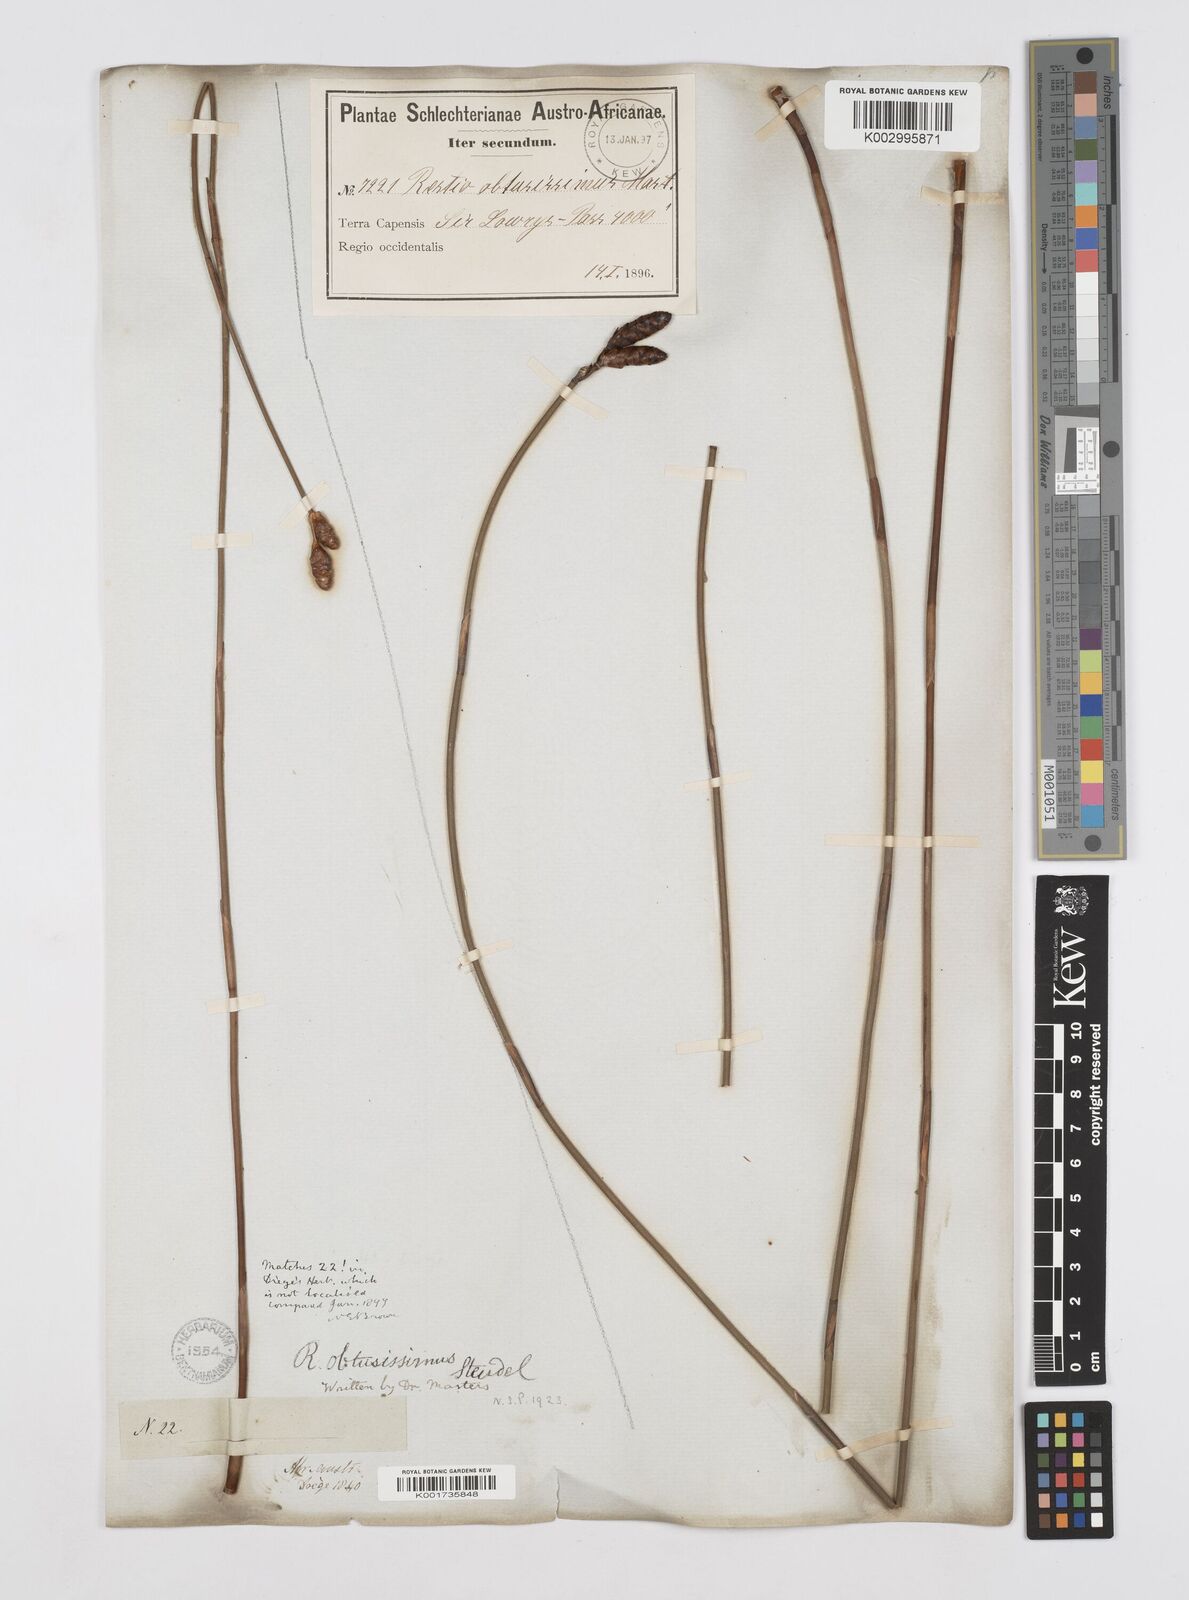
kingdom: Plantae
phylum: Tracheophyta
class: Liliopsida
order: Poales
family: Restionaceae
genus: Nevillea
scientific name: Nevillea obtusissimus
